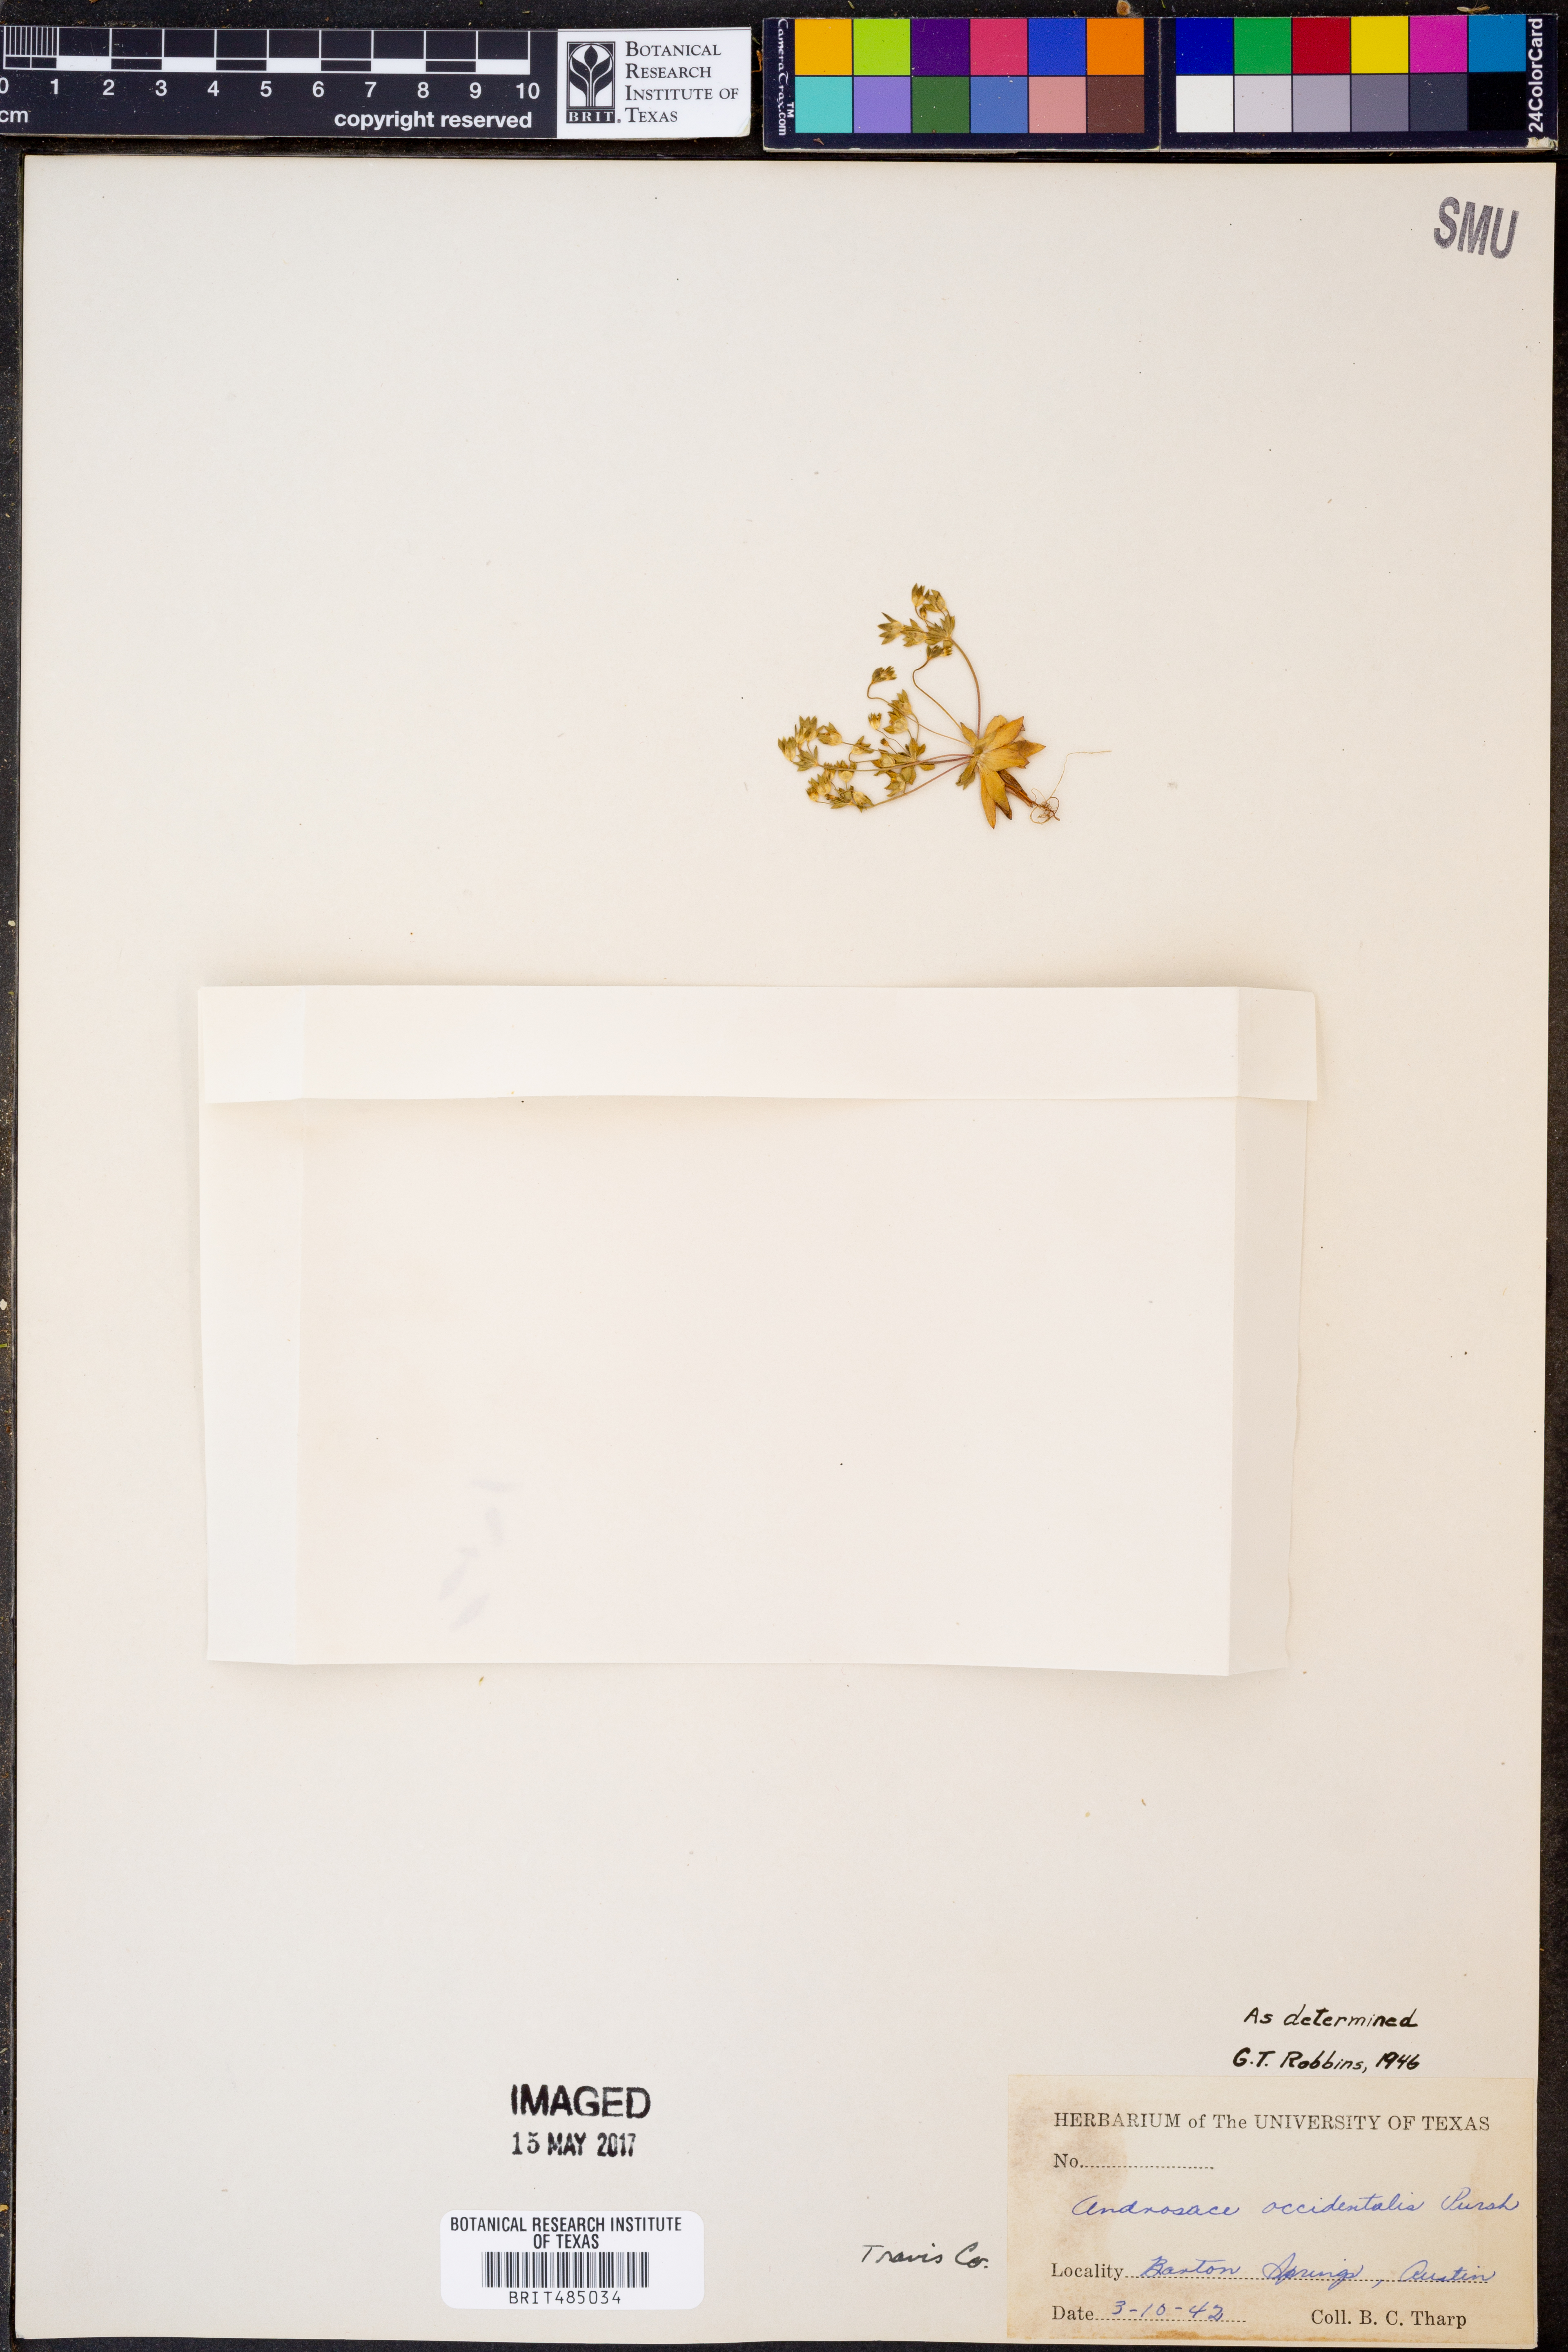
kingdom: Plantae
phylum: Tracheophyta
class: Magnoliopsida
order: Ericales
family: Primulaceae
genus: Androsace
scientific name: Androsace occidentalis
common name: West rock-jasmine
